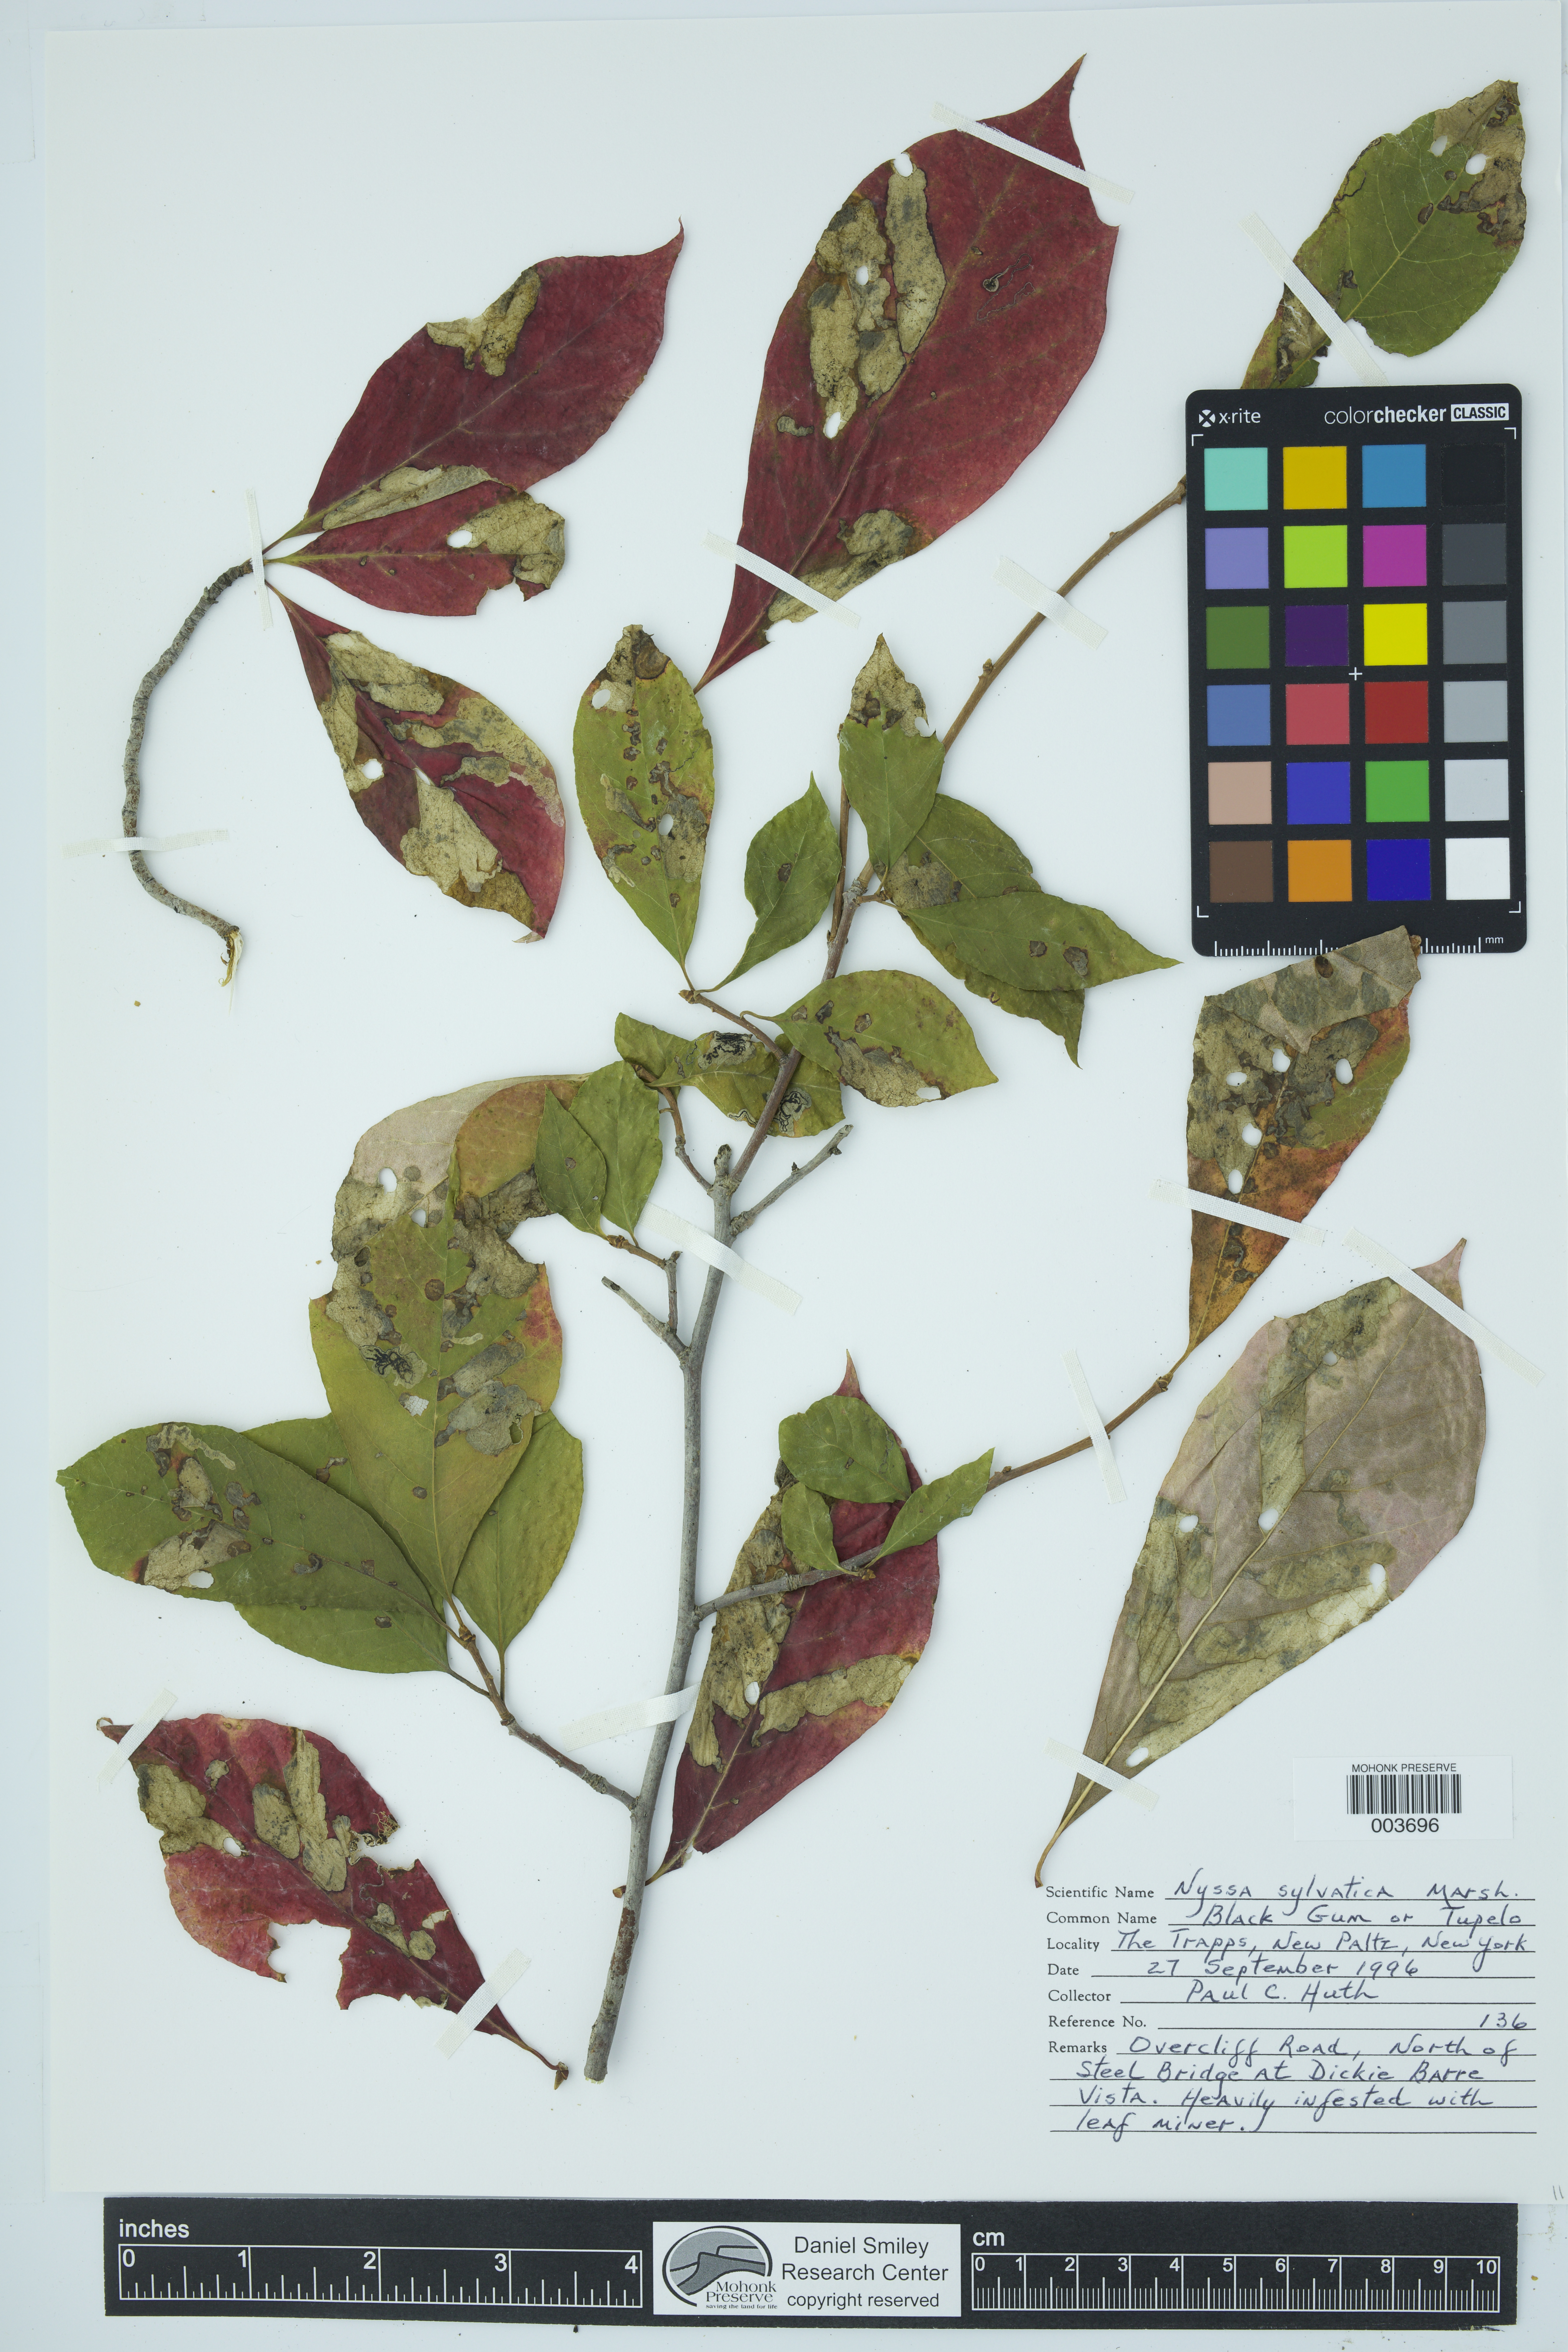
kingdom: Plantae
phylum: Tracheophyta
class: Magnoliopsida
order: Cornales
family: Nyssaceae
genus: Nyssa
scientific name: Nyssa sylvatica
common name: Black tupelo
